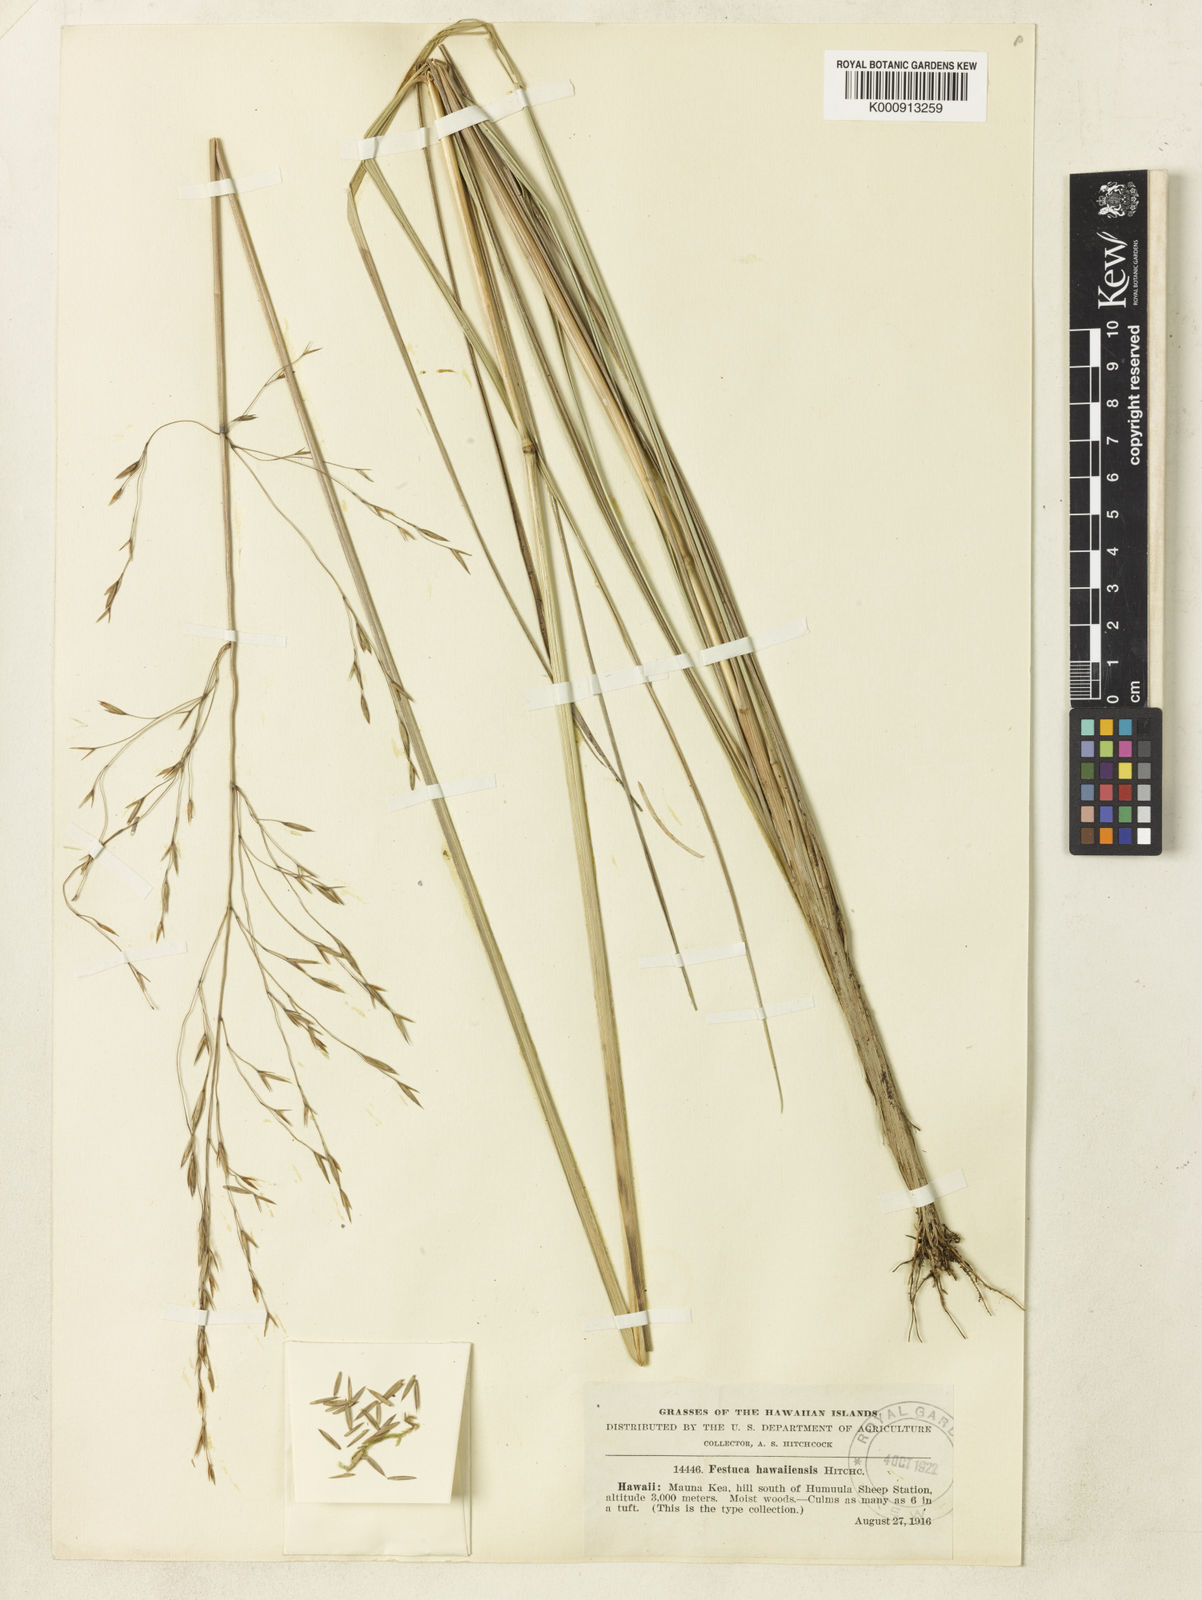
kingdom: Plantae
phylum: Tracheophyta
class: Liliopsida
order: Poales
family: Poaceae
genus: Festuca
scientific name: Festuca hawaiiensis
